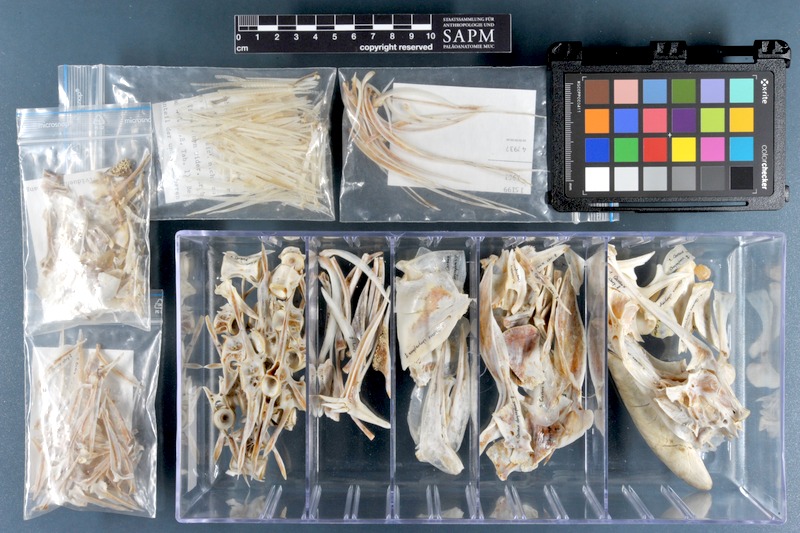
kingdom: Animalia
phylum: Chordata
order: Perciformes
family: Carangidae
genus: Carangoides
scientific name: Carangoides chrysophrys
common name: Longnose trevally
